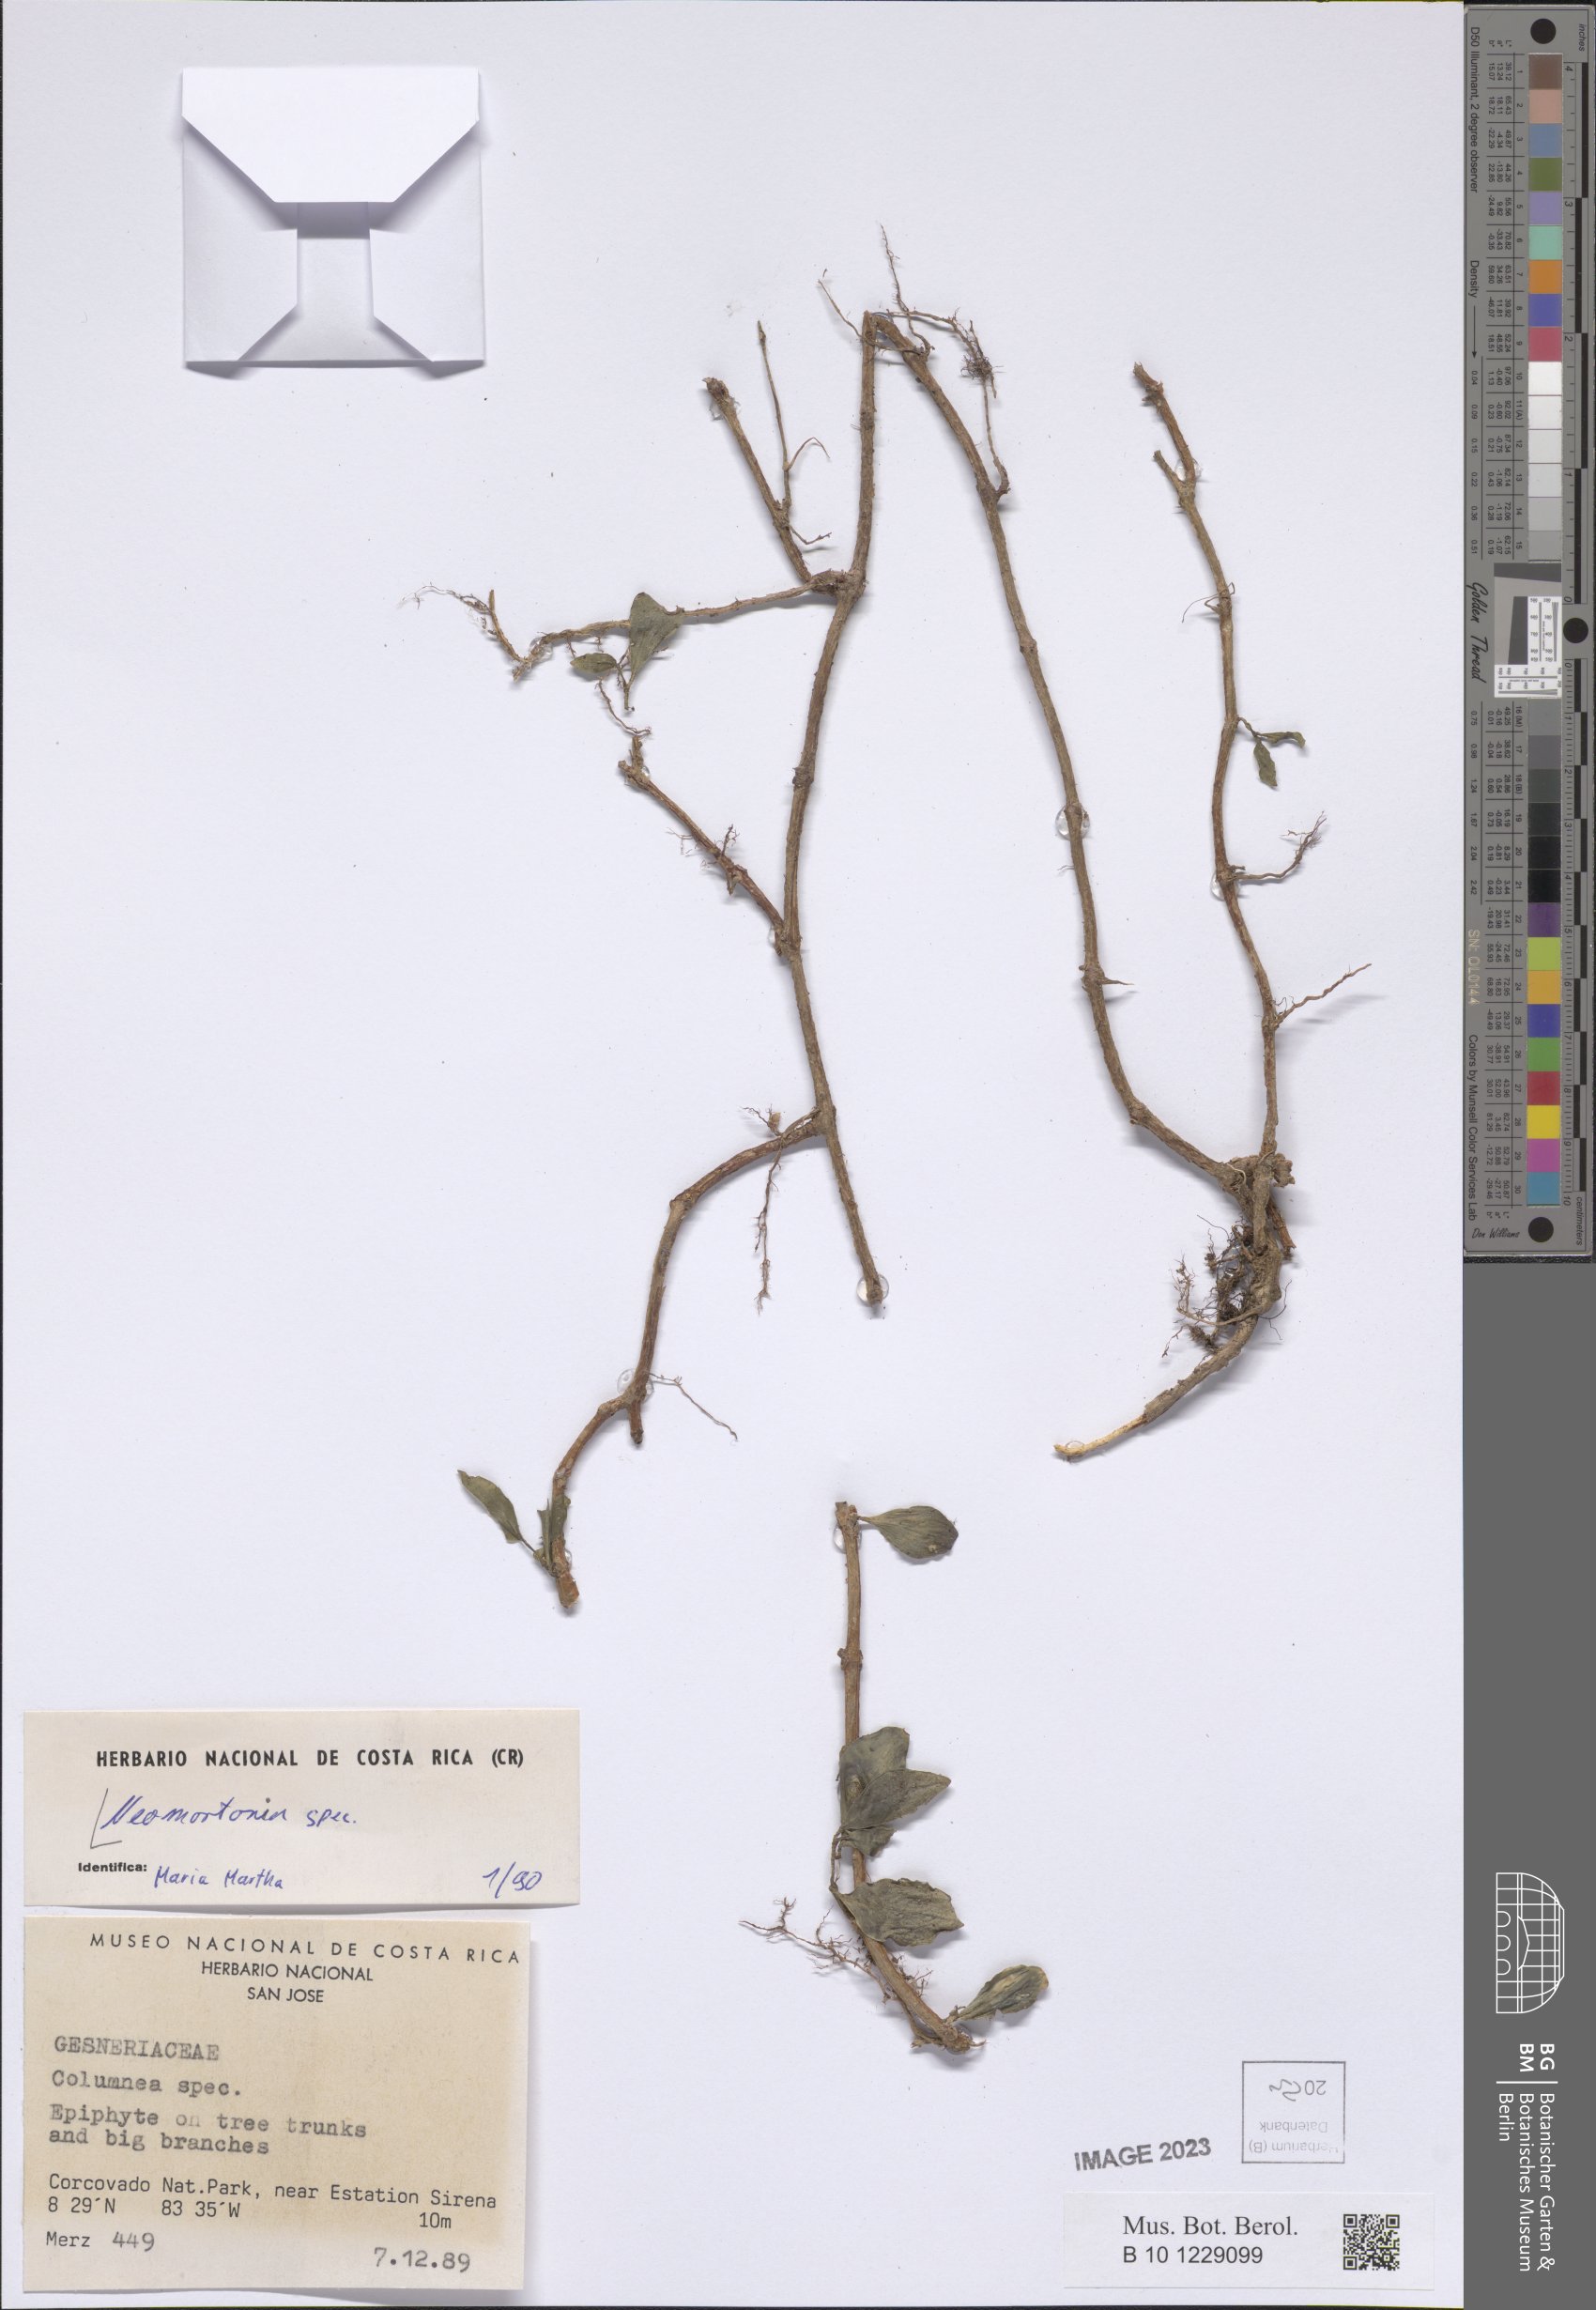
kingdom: Plantae
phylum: Tracheophyta
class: Magnoliopsida
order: Lamiales
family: Gesneriaceae
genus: Neomortonia
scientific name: Neomortonia
